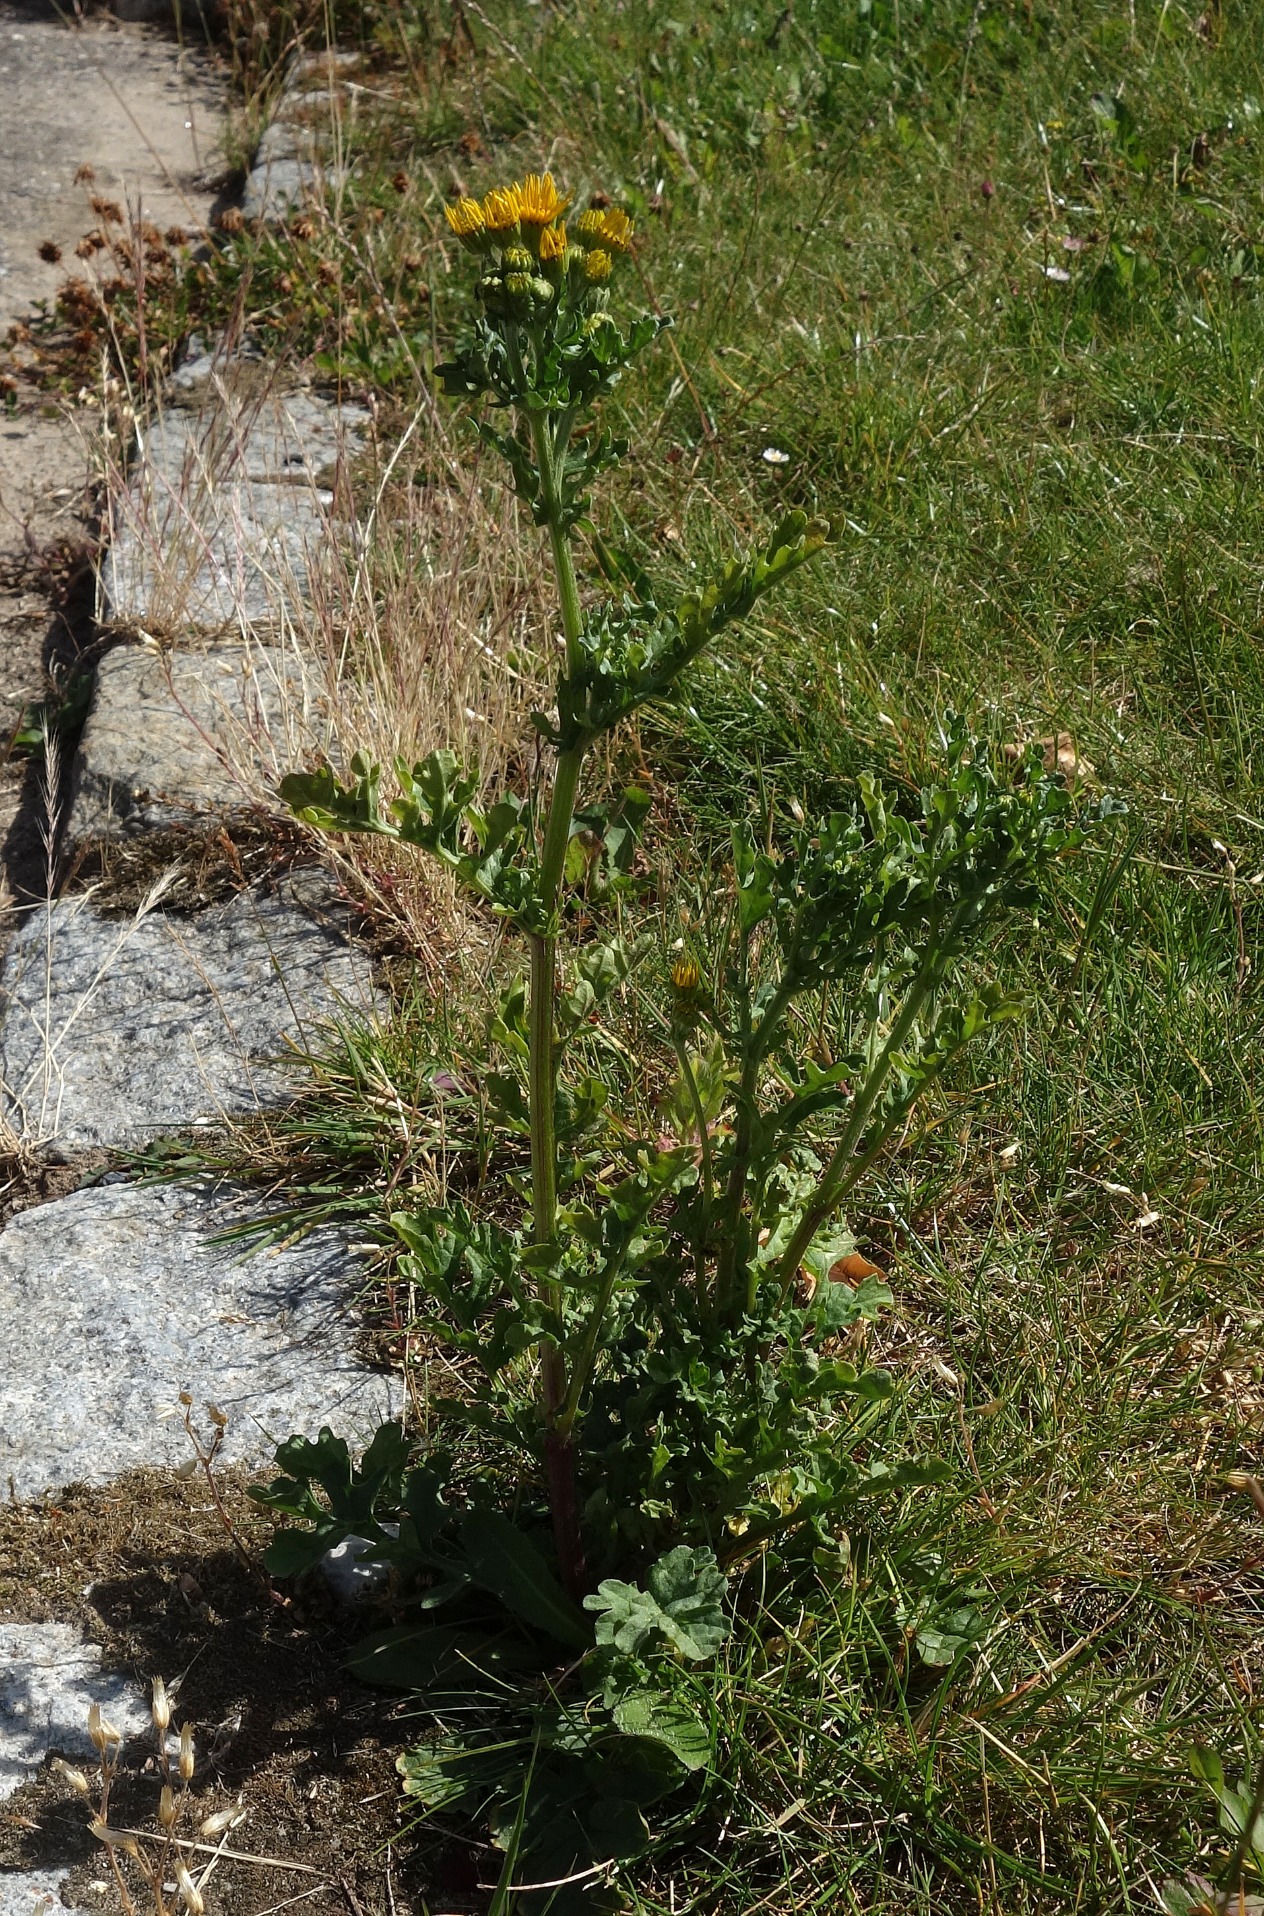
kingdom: Plantae
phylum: Tracheophyta
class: Magnoliopsida
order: Asterales
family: Asteraceae
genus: Jacobaea
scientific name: Jacobaea vulgaris
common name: Eng-brandbæger
